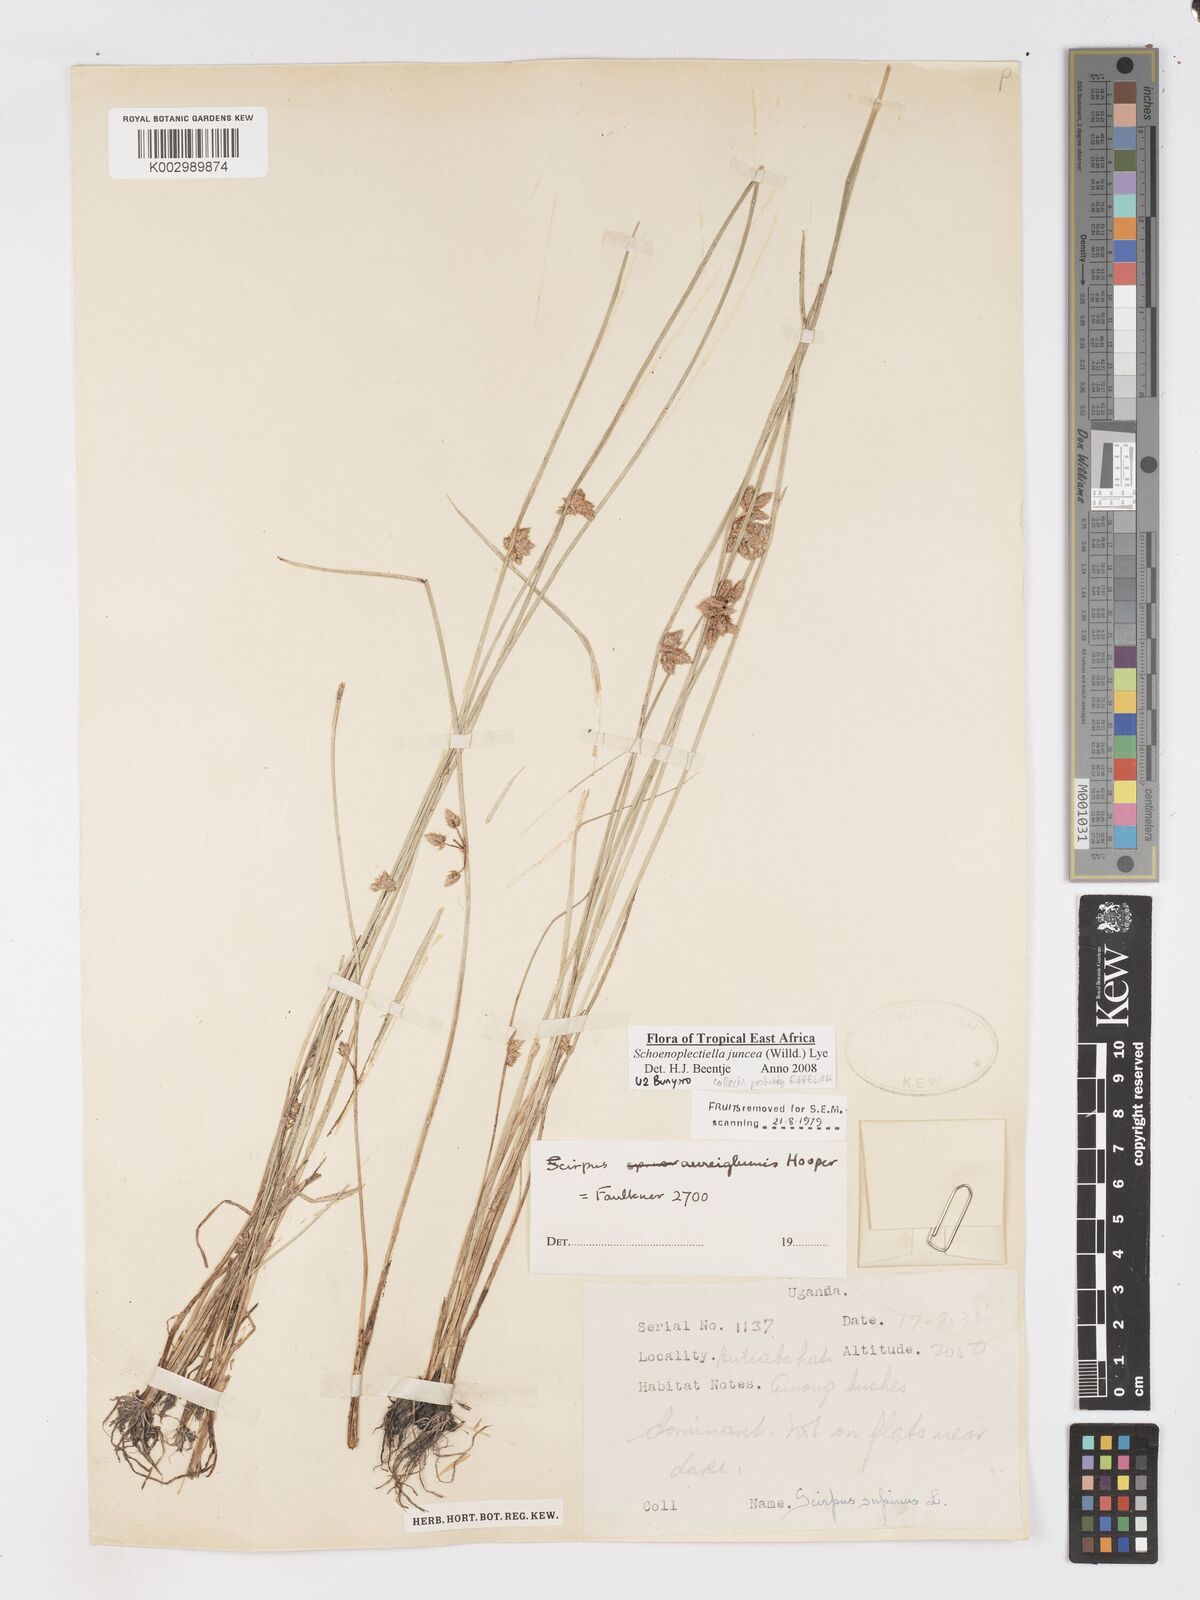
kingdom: Plantae
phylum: Tracheophyta
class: Liliopsida
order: Poales
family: Cyperaceae
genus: Schoenoplectiella
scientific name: Schoenoplectiella juncea
